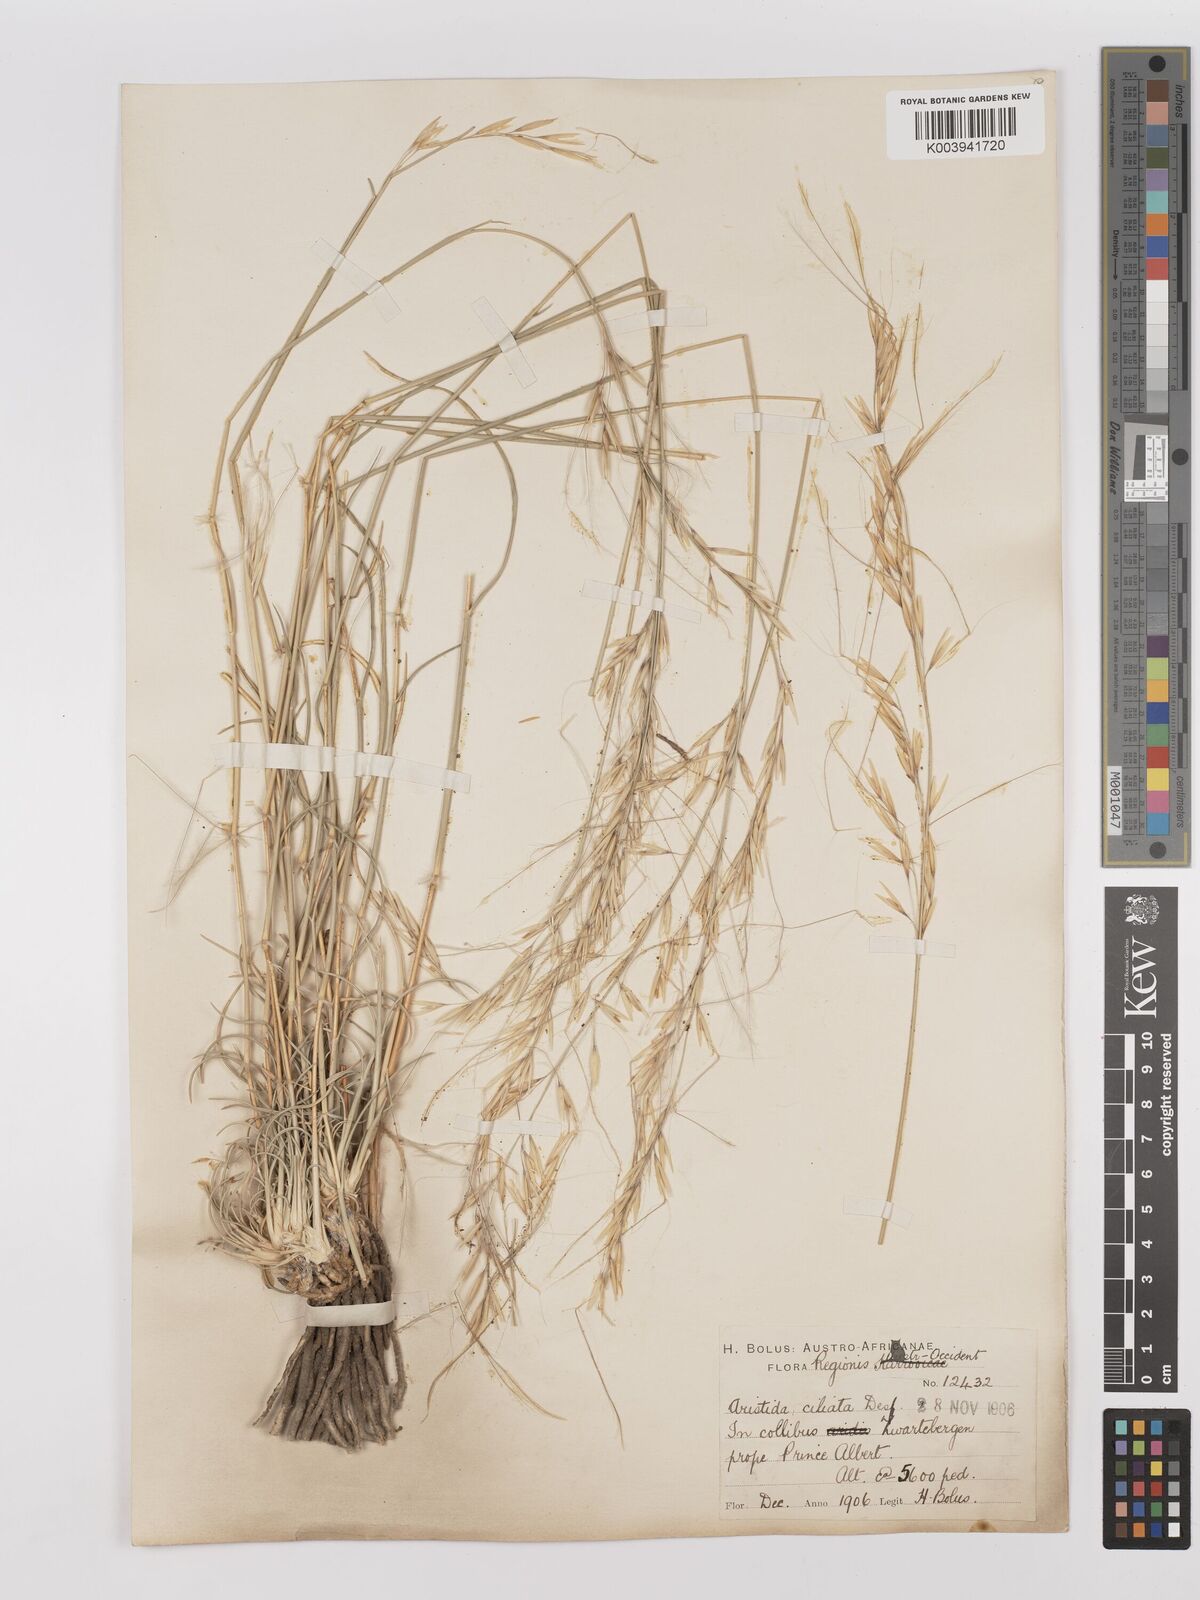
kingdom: Plantae
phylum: Tracheophyta
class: Liliopsida
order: Poales
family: Poaceae
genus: Stipagrostis
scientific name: Stipagrostis ciliata
